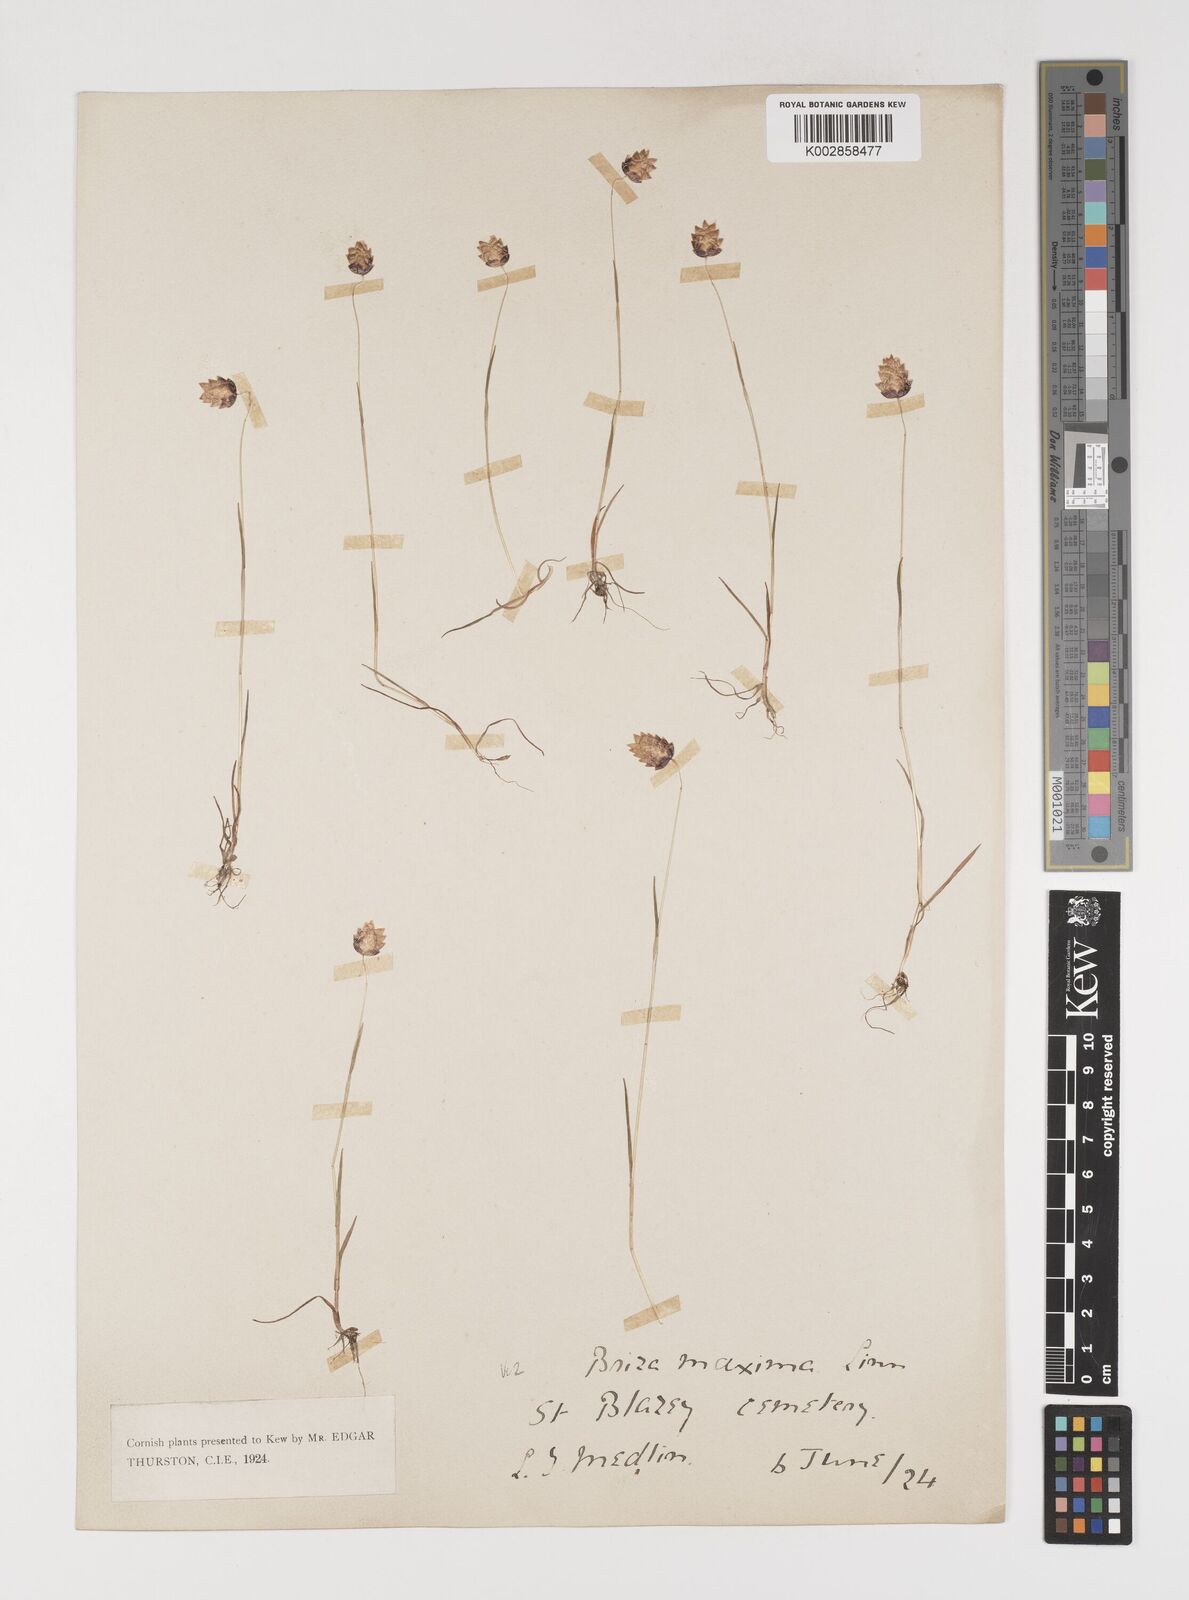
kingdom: Plantae
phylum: Tracheophyta
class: Liliopsida
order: Poales
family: Poaceae
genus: Briza
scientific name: Briza maxima
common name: Big quakinggrass
